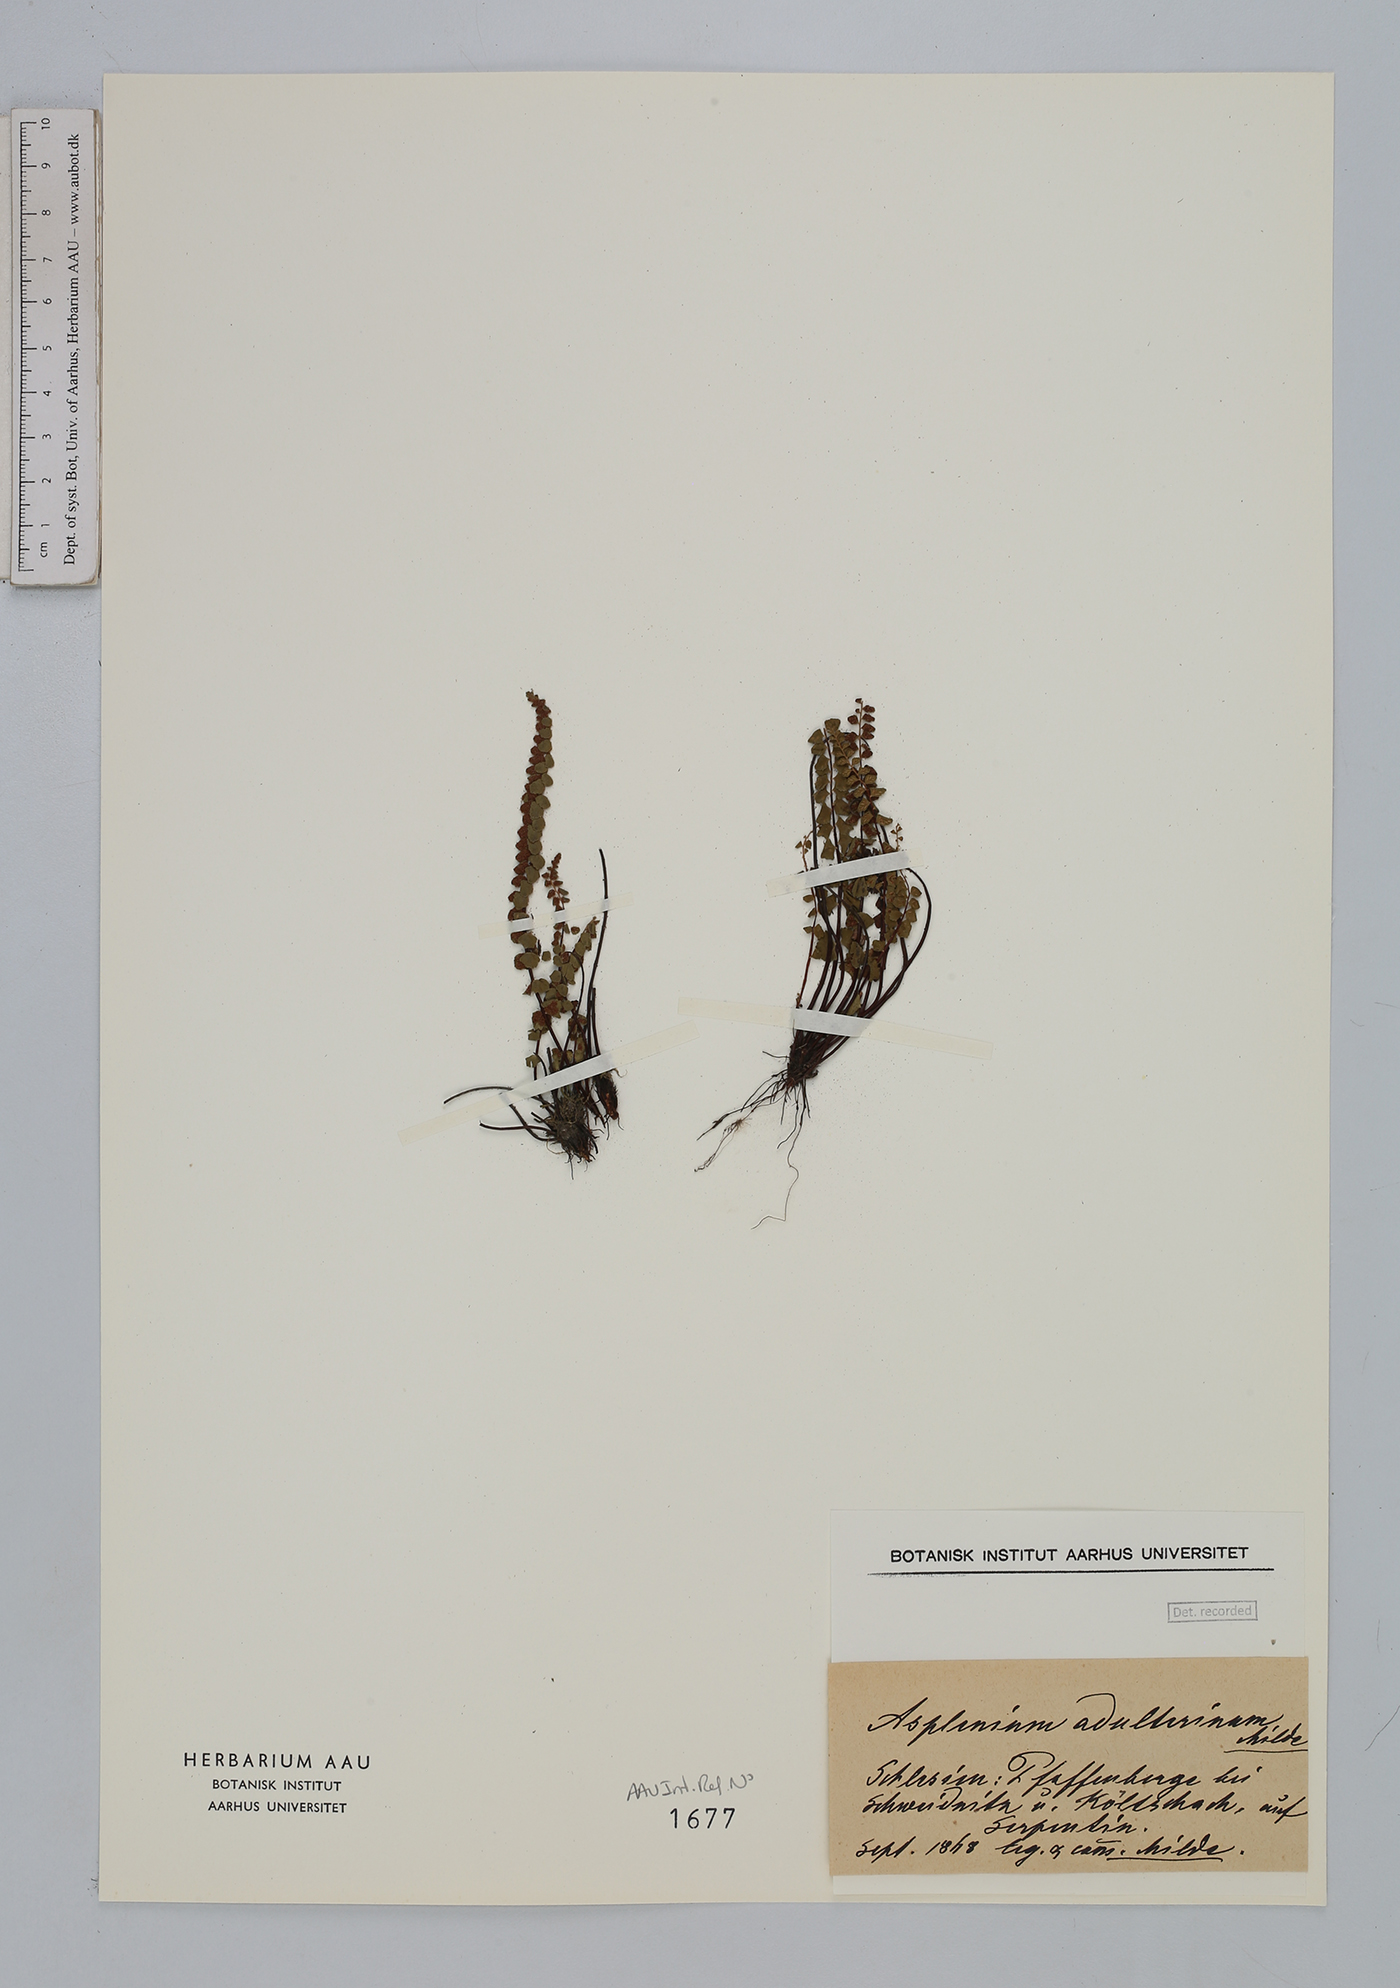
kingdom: Plantae
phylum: Tracheophyta
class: Polypodiopsida
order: Polypodiales
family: Aspleniaceae
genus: Asplenium
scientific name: Asplenium adulterinum
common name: Adulterated spleenwort
